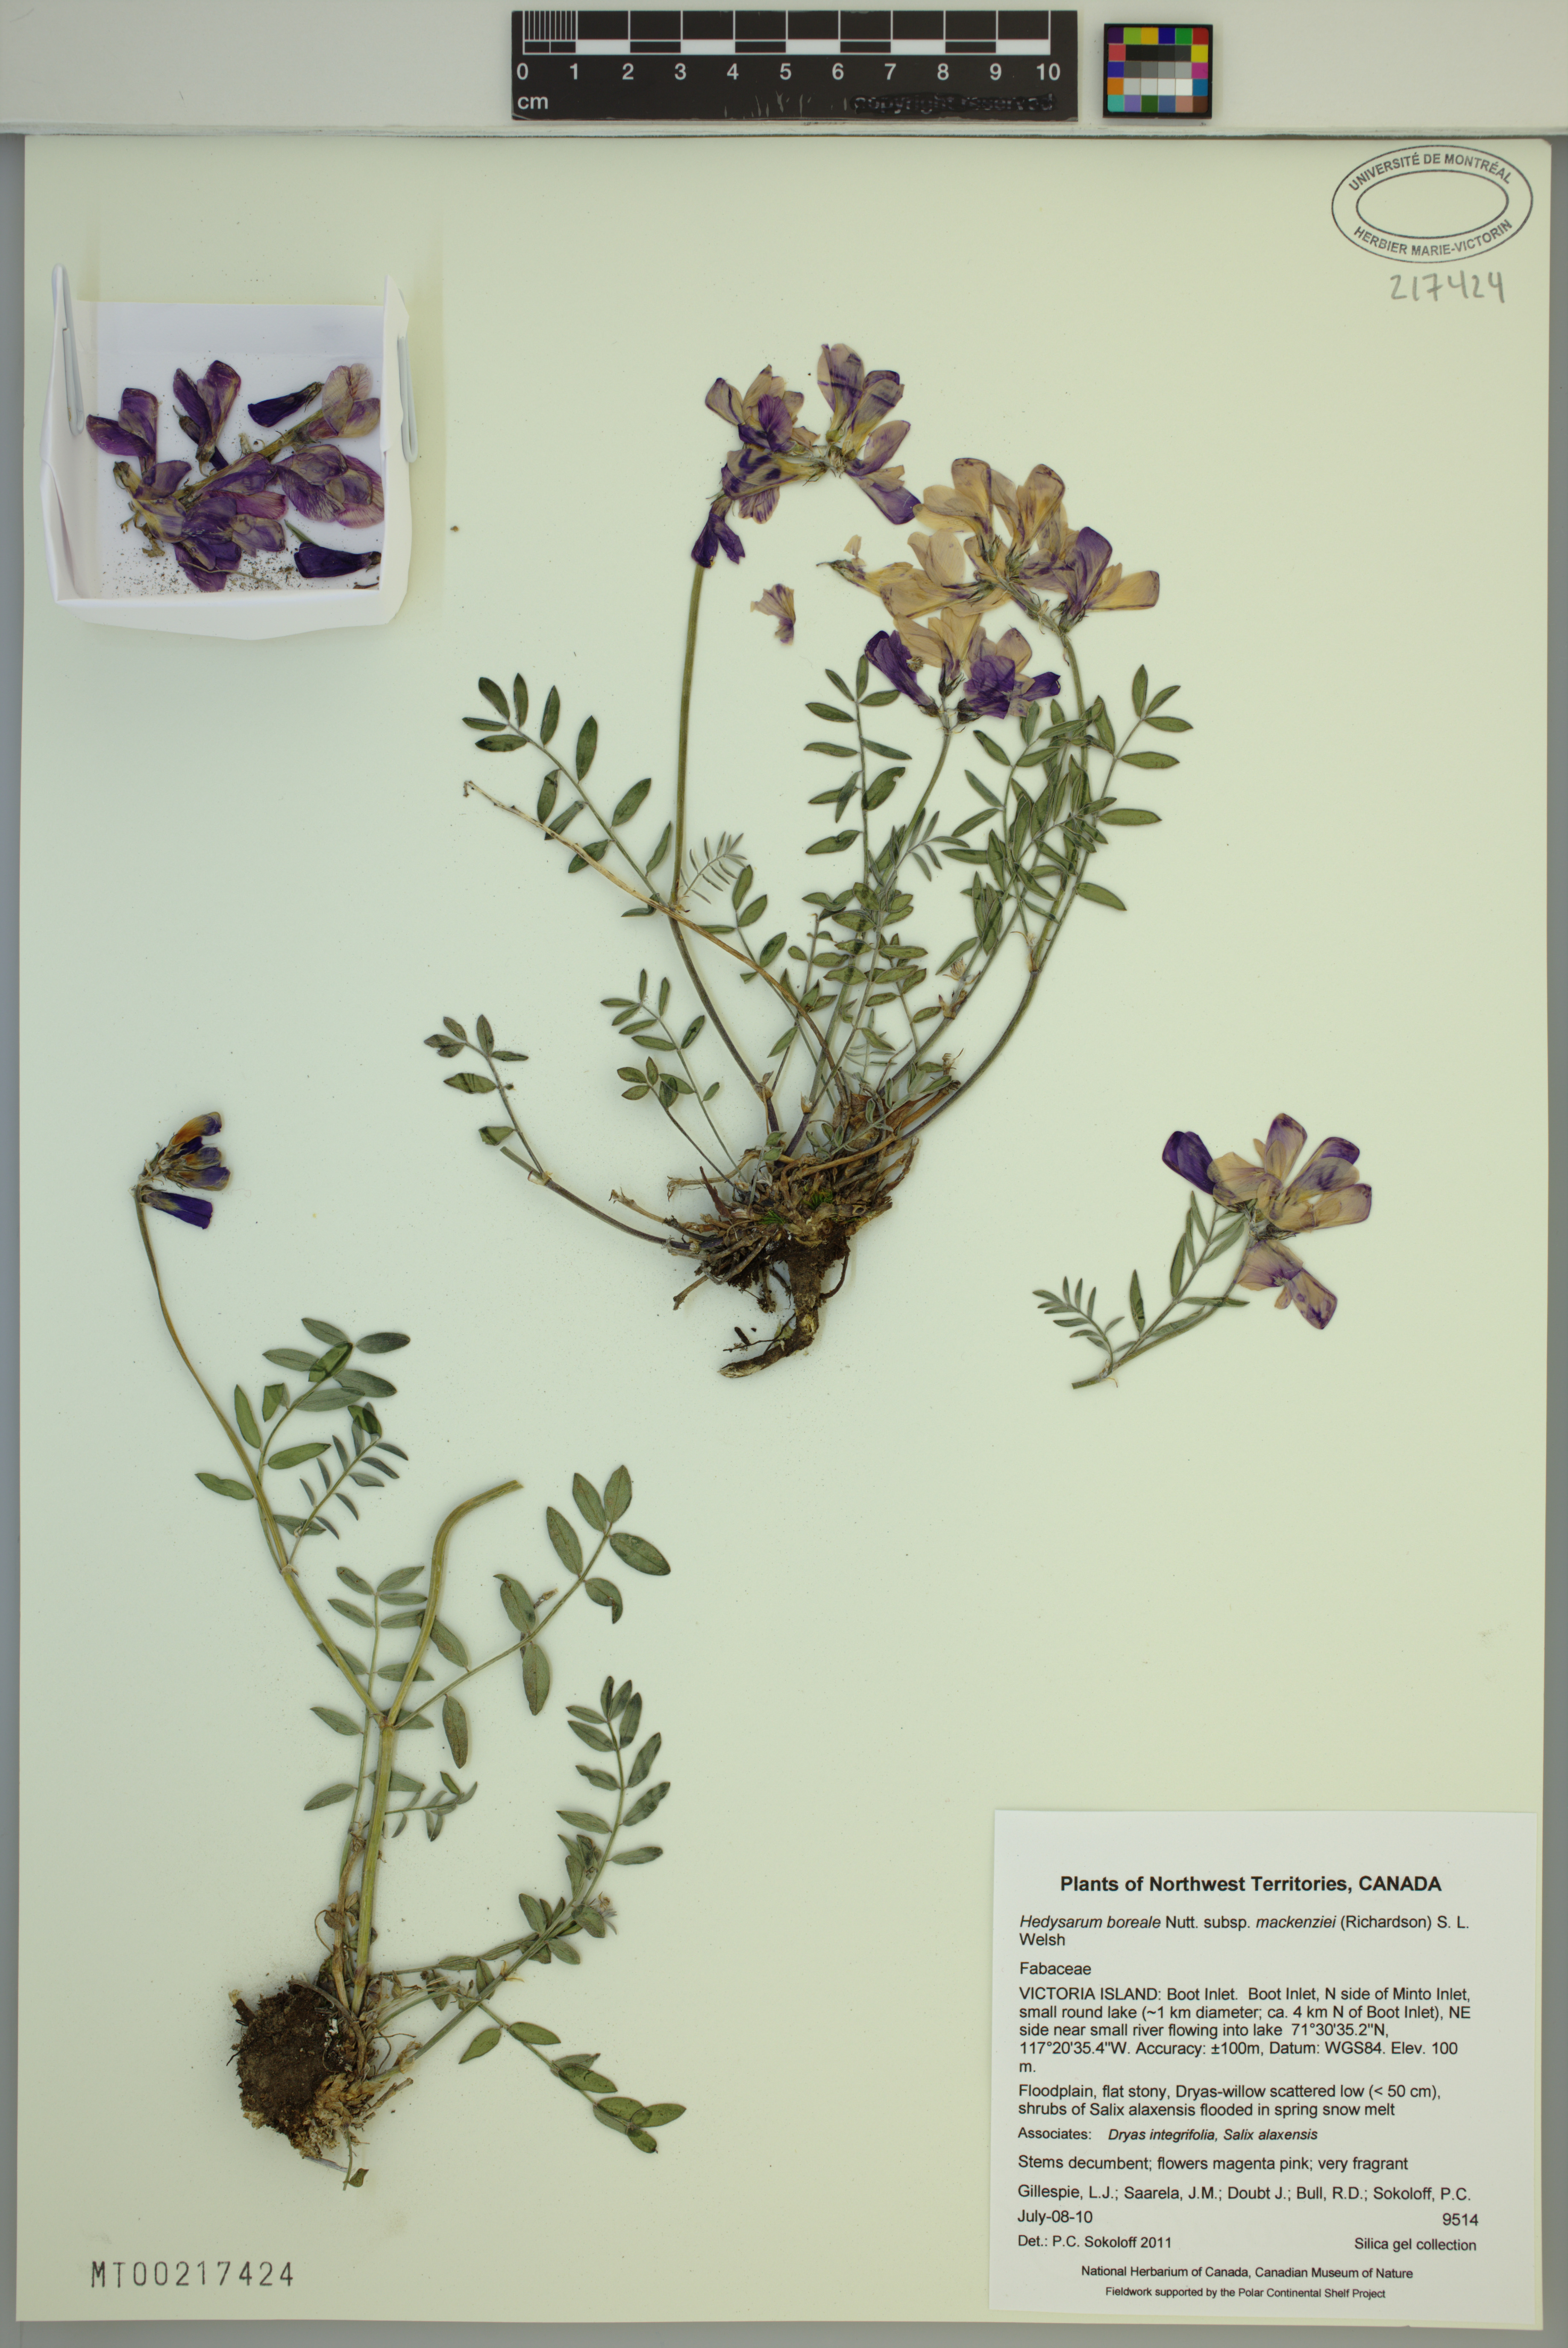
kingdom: Plantae
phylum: Tracheophyta
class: Magnoliopsida
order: Fabales
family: Fabaceae
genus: Hedysarum
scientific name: Hedysarum boreale
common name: Northern sweet-vetch
